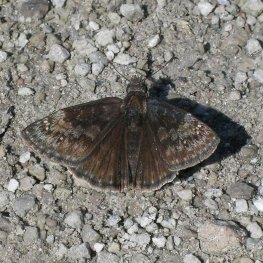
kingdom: Animalia
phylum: Arthropoda
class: Insecta
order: Lepidoptera
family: Hesperiidae
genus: Gesta
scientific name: Gesta
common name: Wild Indigo Duskywing
